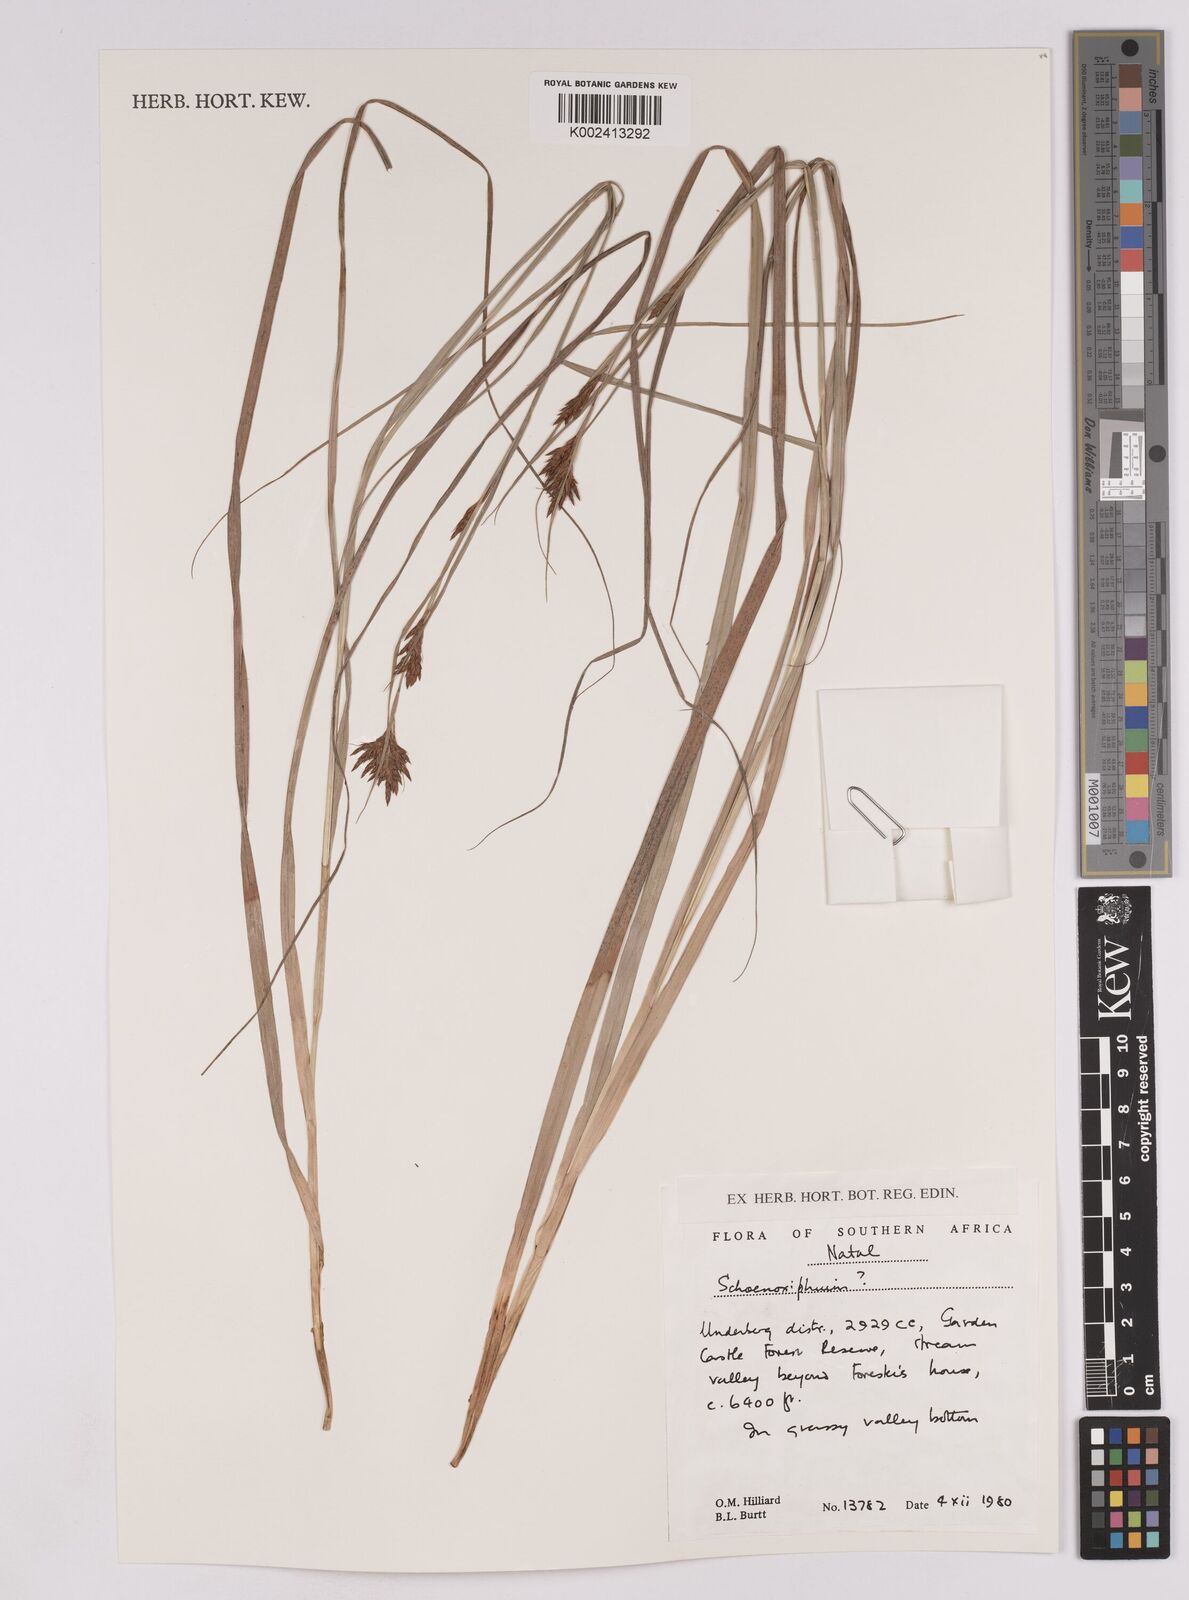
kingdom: Plantae
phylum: Tracheophyta
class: Liliopsida
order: Poales
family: Cyperaceae
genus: Carex
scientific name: Carex
